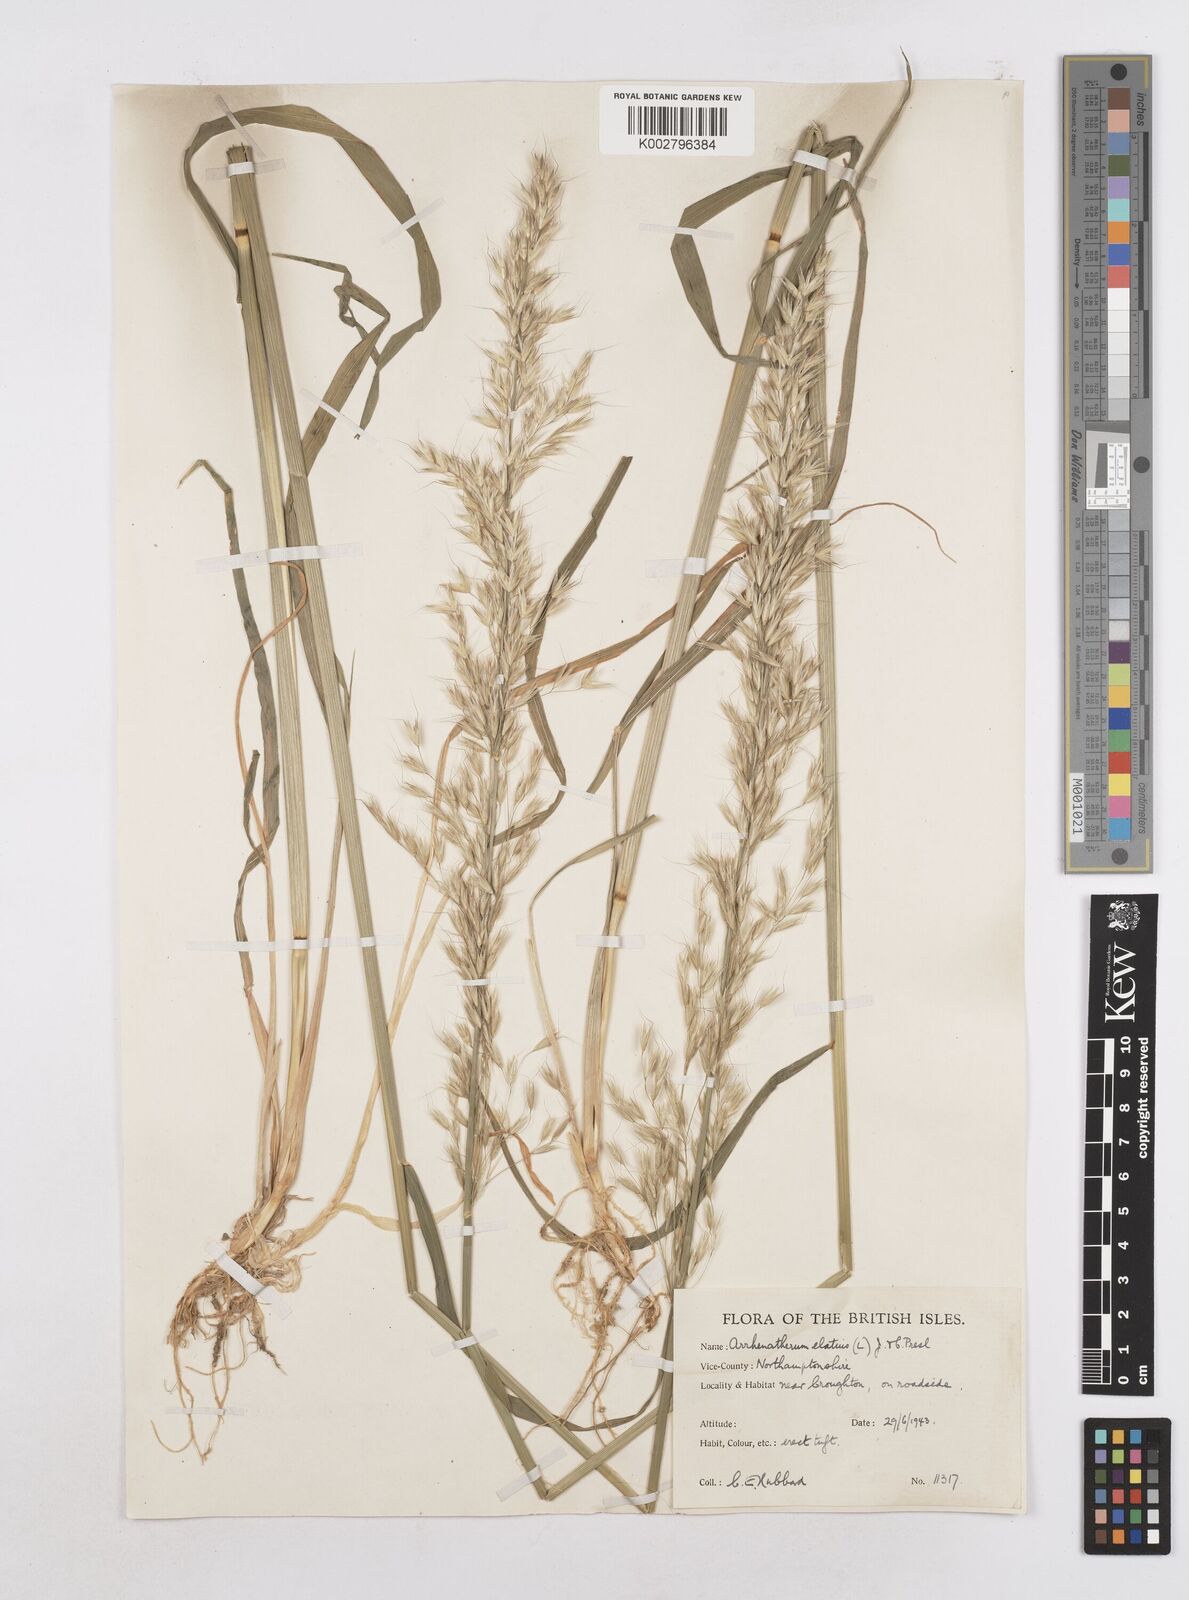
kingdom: Plantae
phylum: Tracheophyta
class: Liliopsida
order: Poales
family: Poaceae
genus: Arrhenatherum
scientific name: Arrhenatherum elatius
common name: Tall oatgrass
